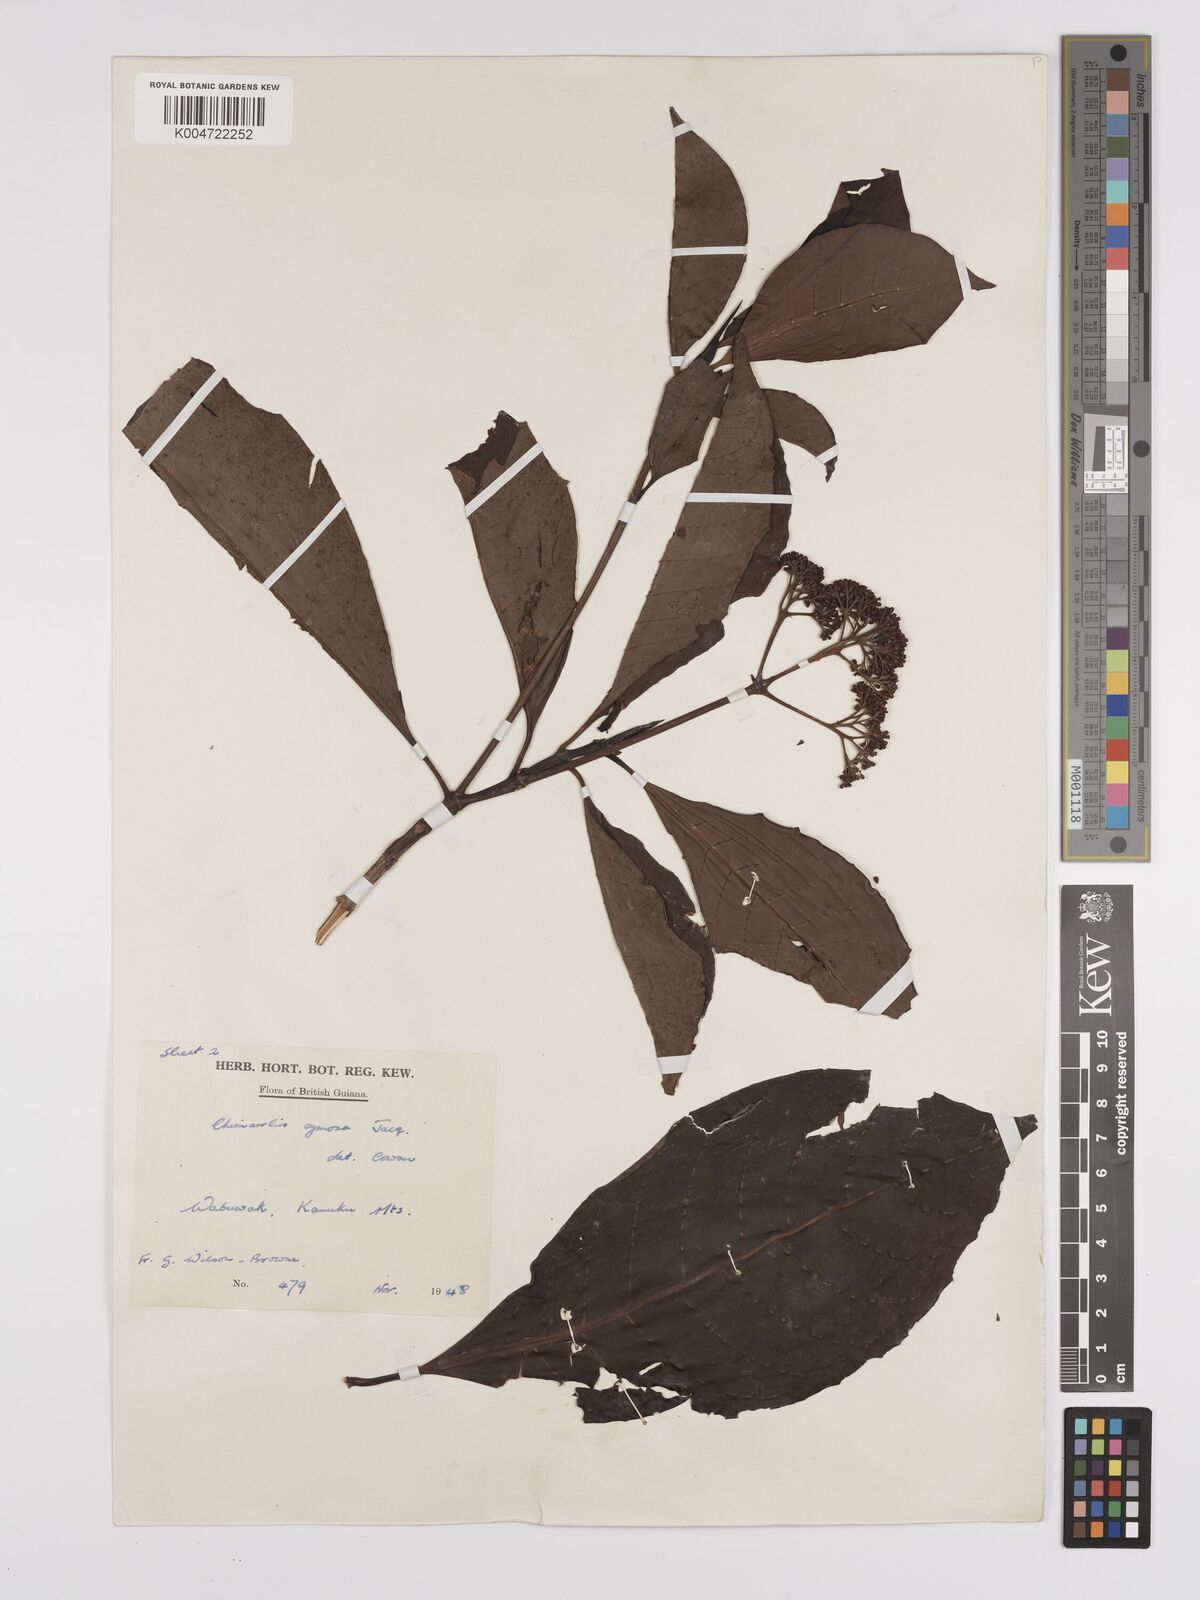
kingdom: Plantae
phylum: Tracheophyta
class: Magnoliopsida
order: Gentianales
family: Rubiaceae
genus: Chimarrhis
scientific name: Chimarrhis cymosa
